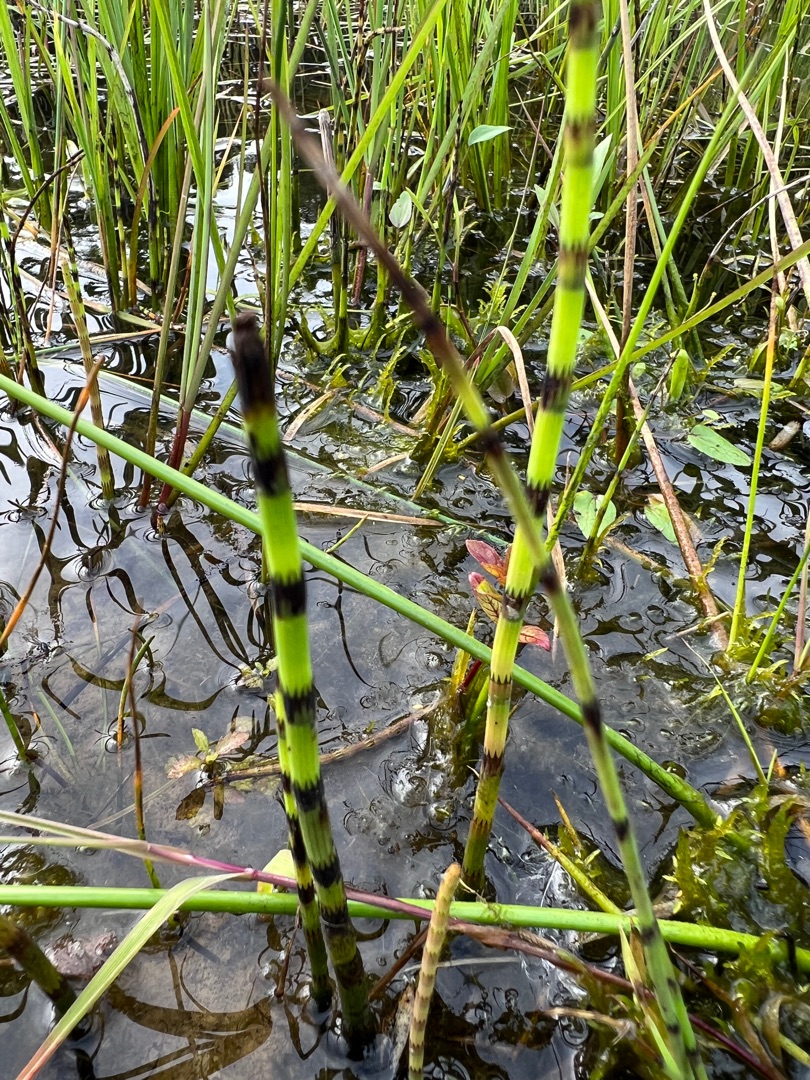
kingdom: Plantae
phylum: Tracheophyta
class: Polypodiopsida
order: Equisetales
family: Equisetaceae
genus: Equisetum
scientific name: Equisetum fluviatile
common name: Dynd-padderok
